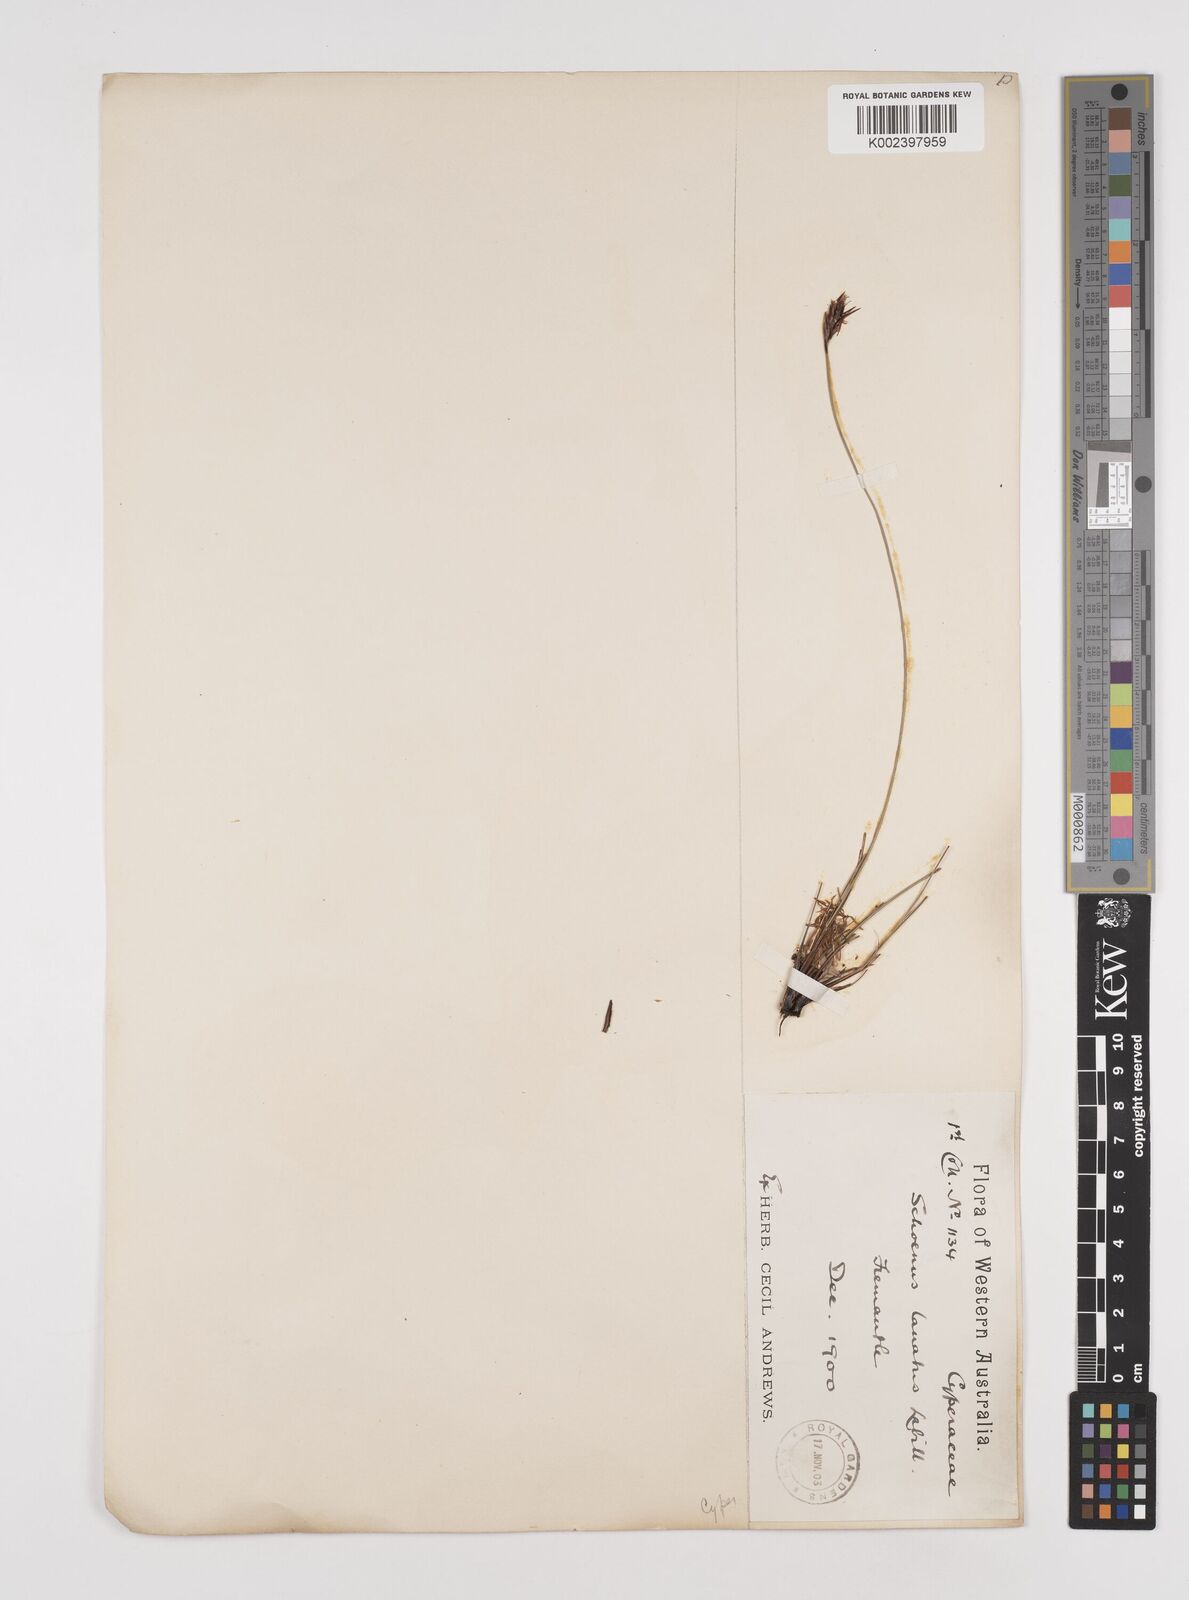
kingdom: Plantae
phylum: Tracheophyta
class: Liliopsida
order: Poales
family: Cyperaceae
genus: Schoenus
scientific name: Schoenus lanatus
